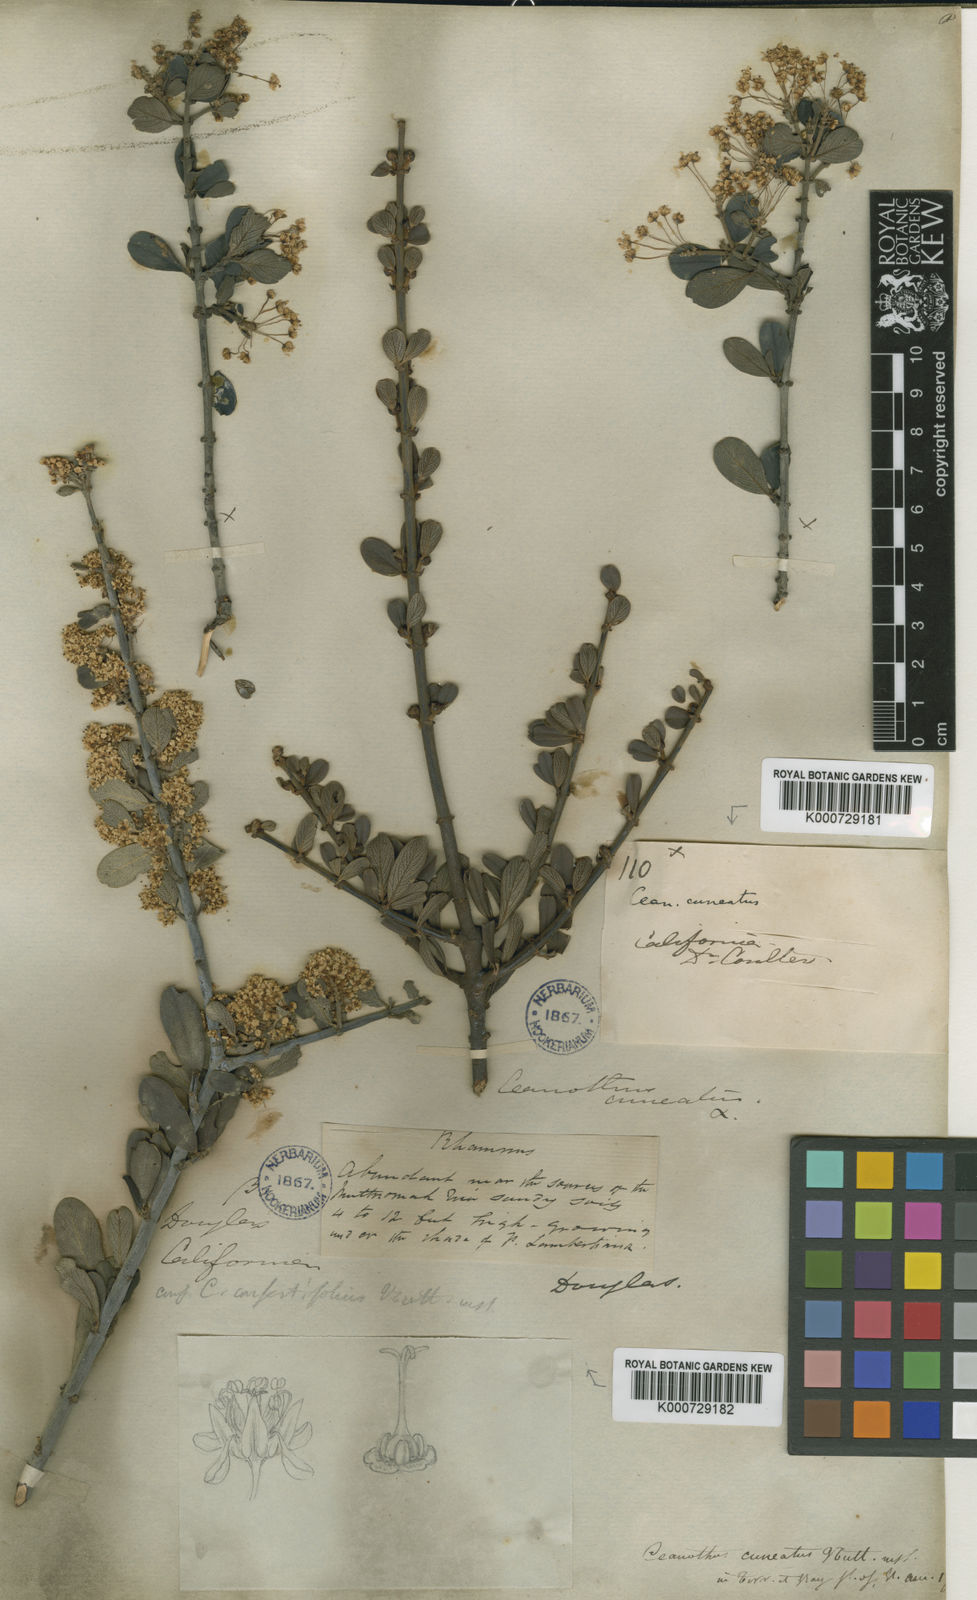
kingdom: Plantae
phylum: Tracheophyta
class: Magnoliopsida
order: Rosales
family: Rhamnaceae
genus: Ceanothus
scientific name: Ceanothus cuneatus
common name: Cuneate ceanothus
